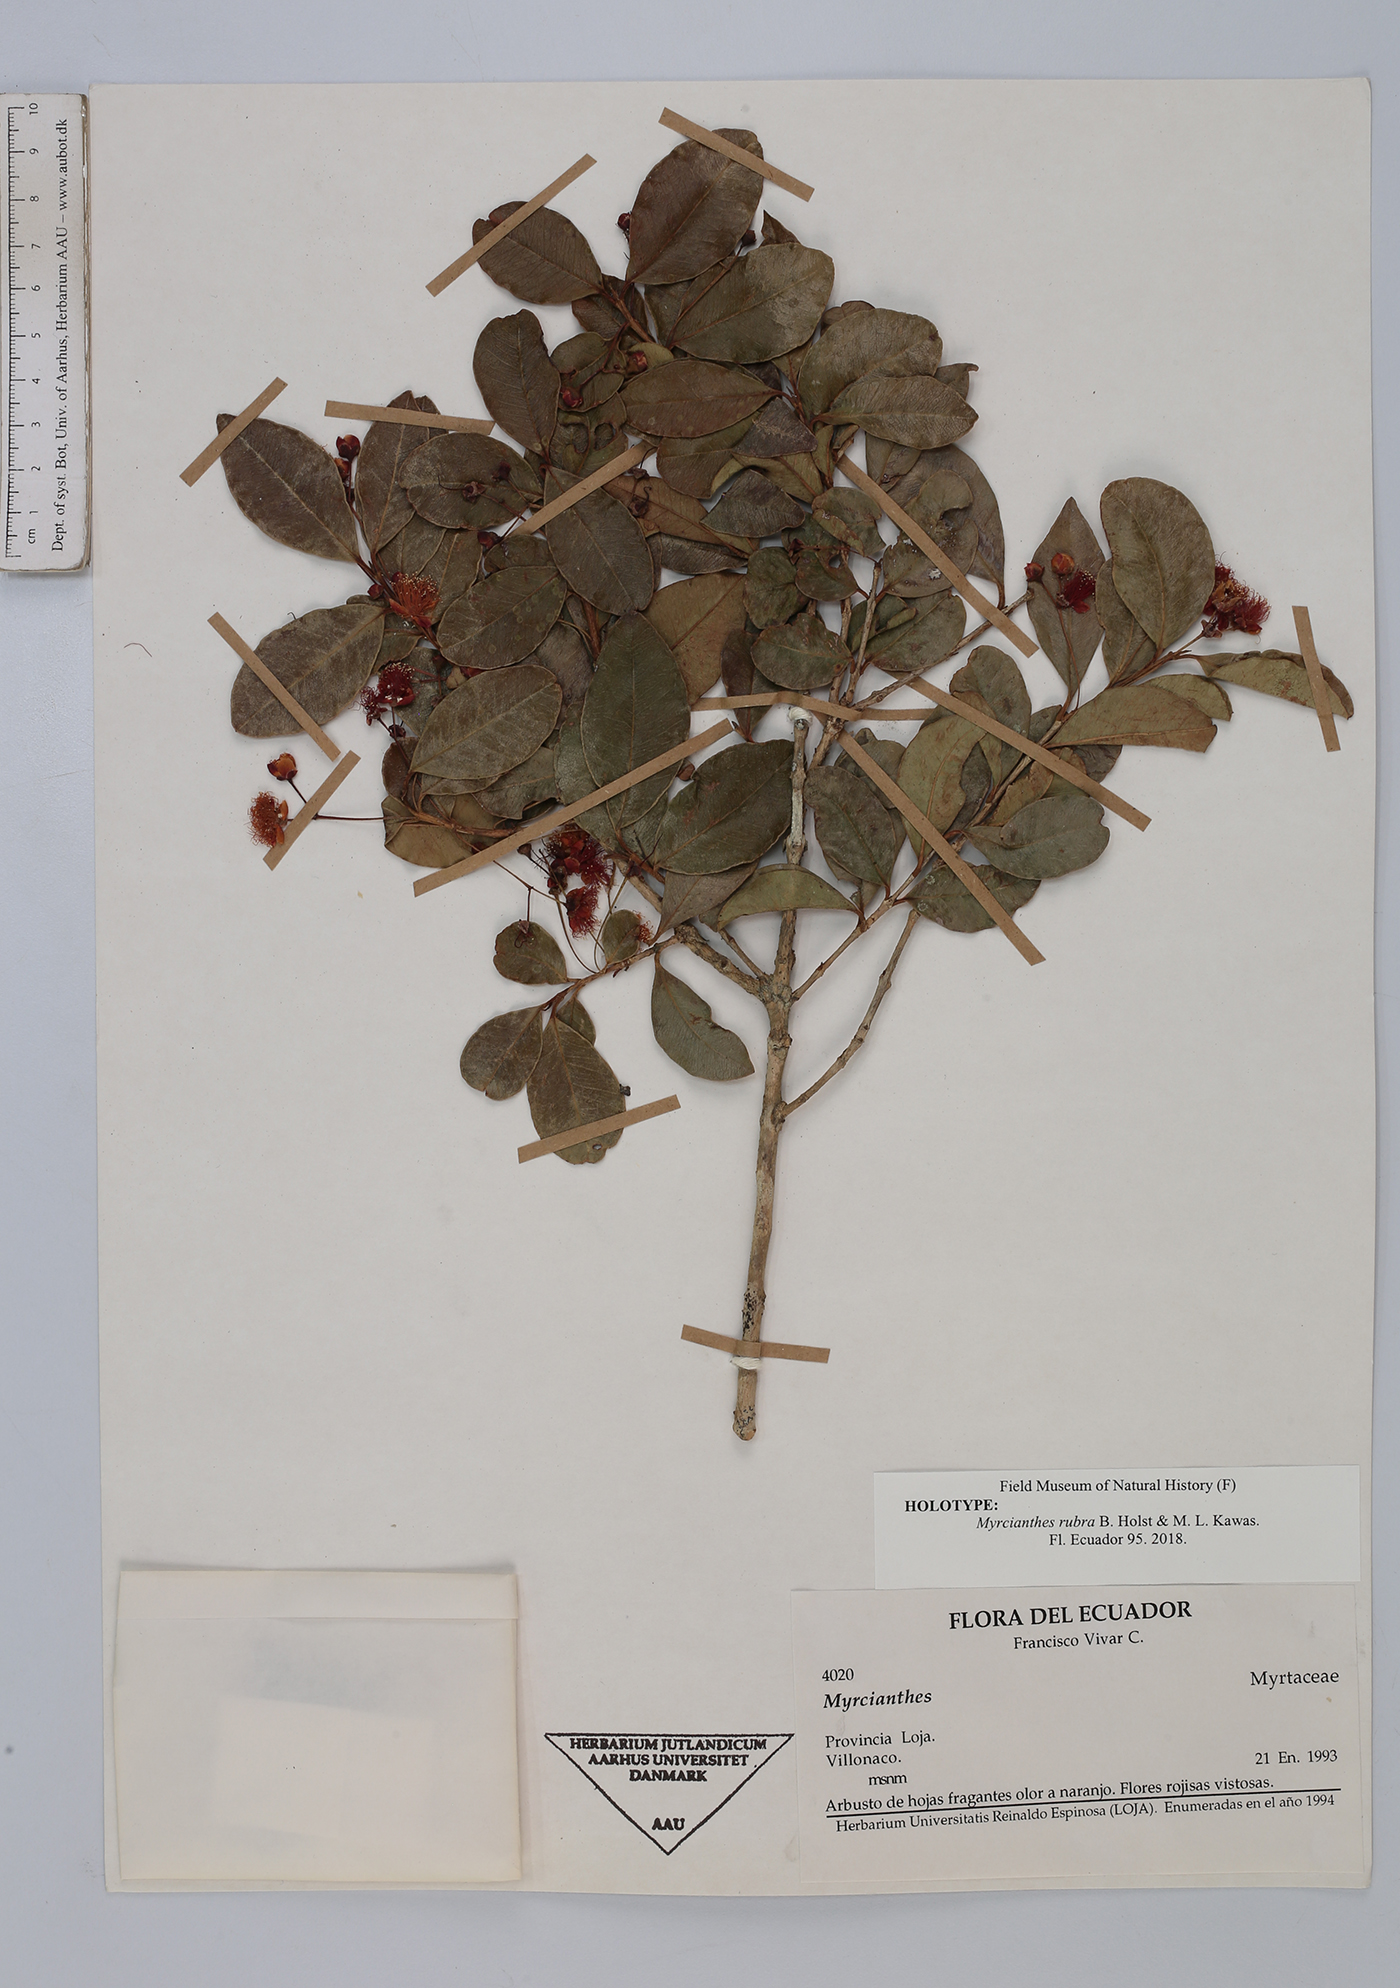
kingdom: Plantae
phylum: Tracheophyta
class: Magnoliopsida
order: Myrtales
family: Myrtaceae
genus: Myrcianthes
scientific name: Myrcianthes rubra
